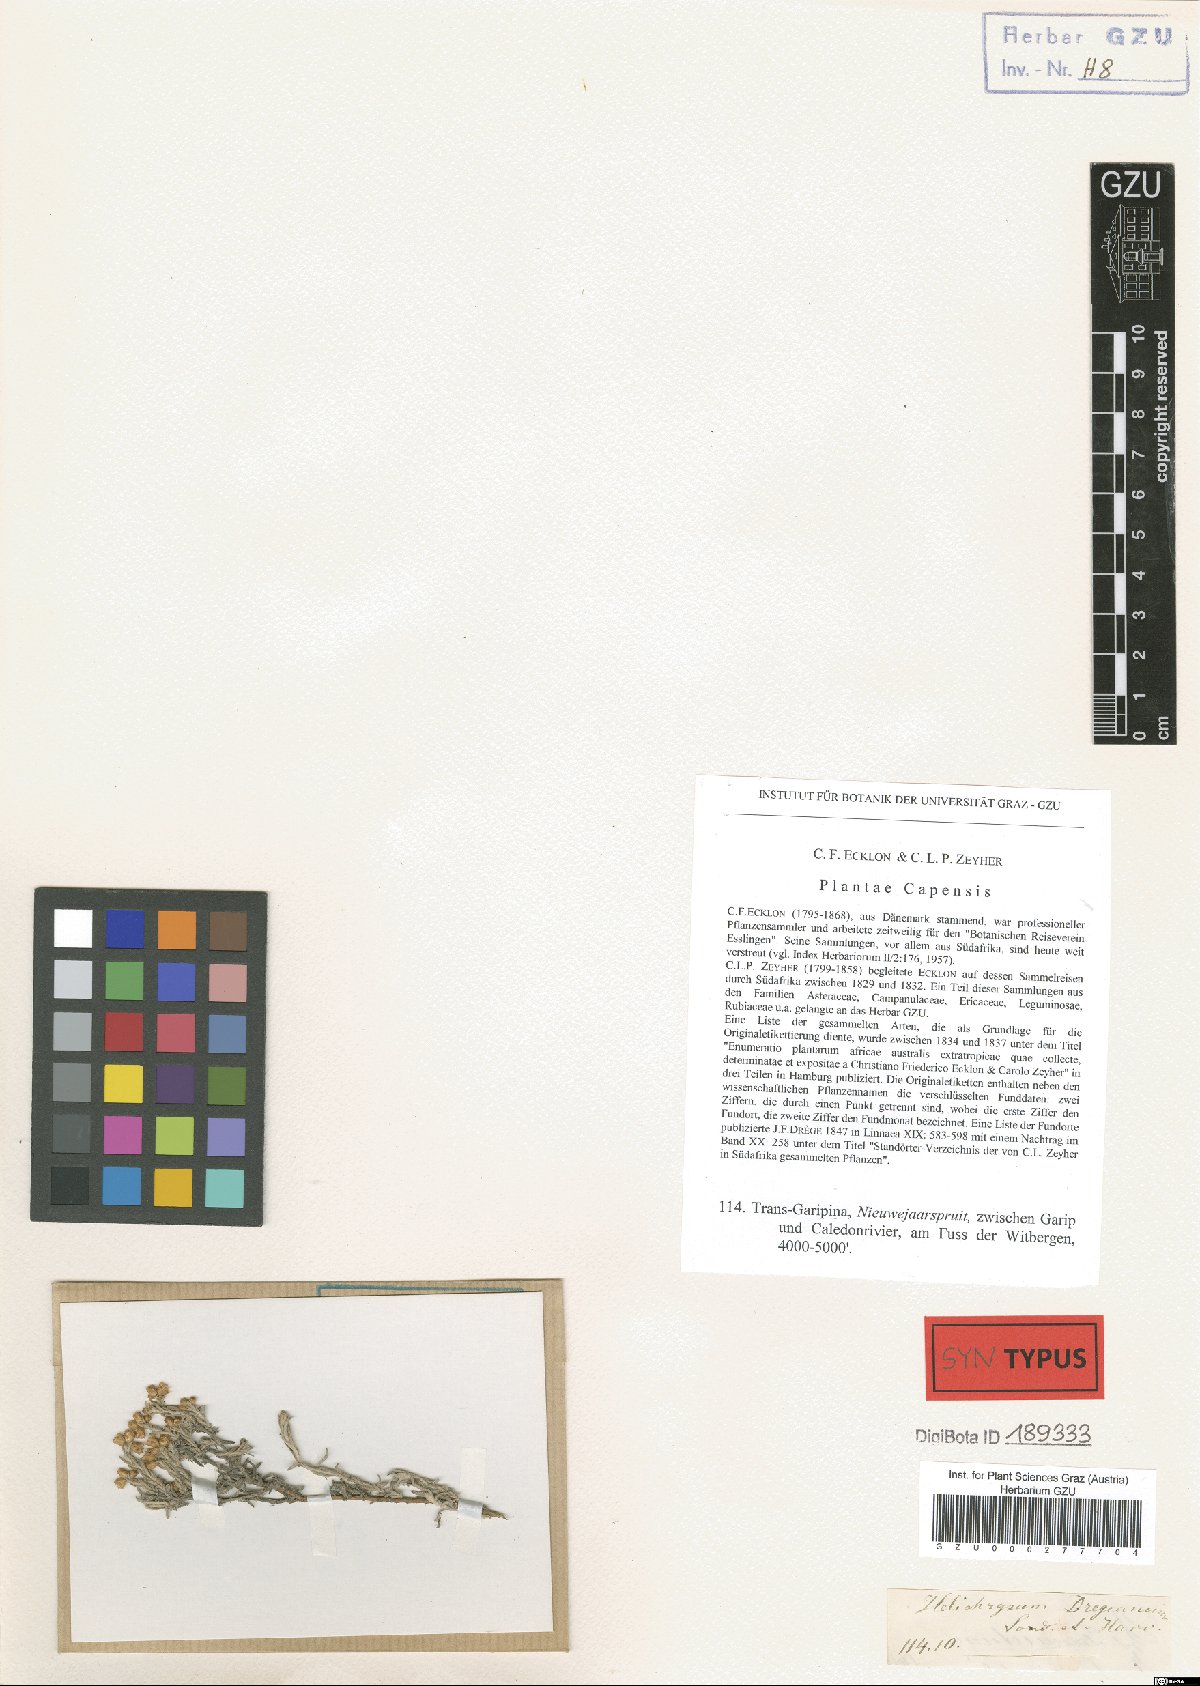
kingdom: Plantae
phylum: Tracheophyta
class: Magnoliopsida
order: Asterales
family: Asteraceae
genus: Helichrysum
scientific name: Helichrysum dregeanum
